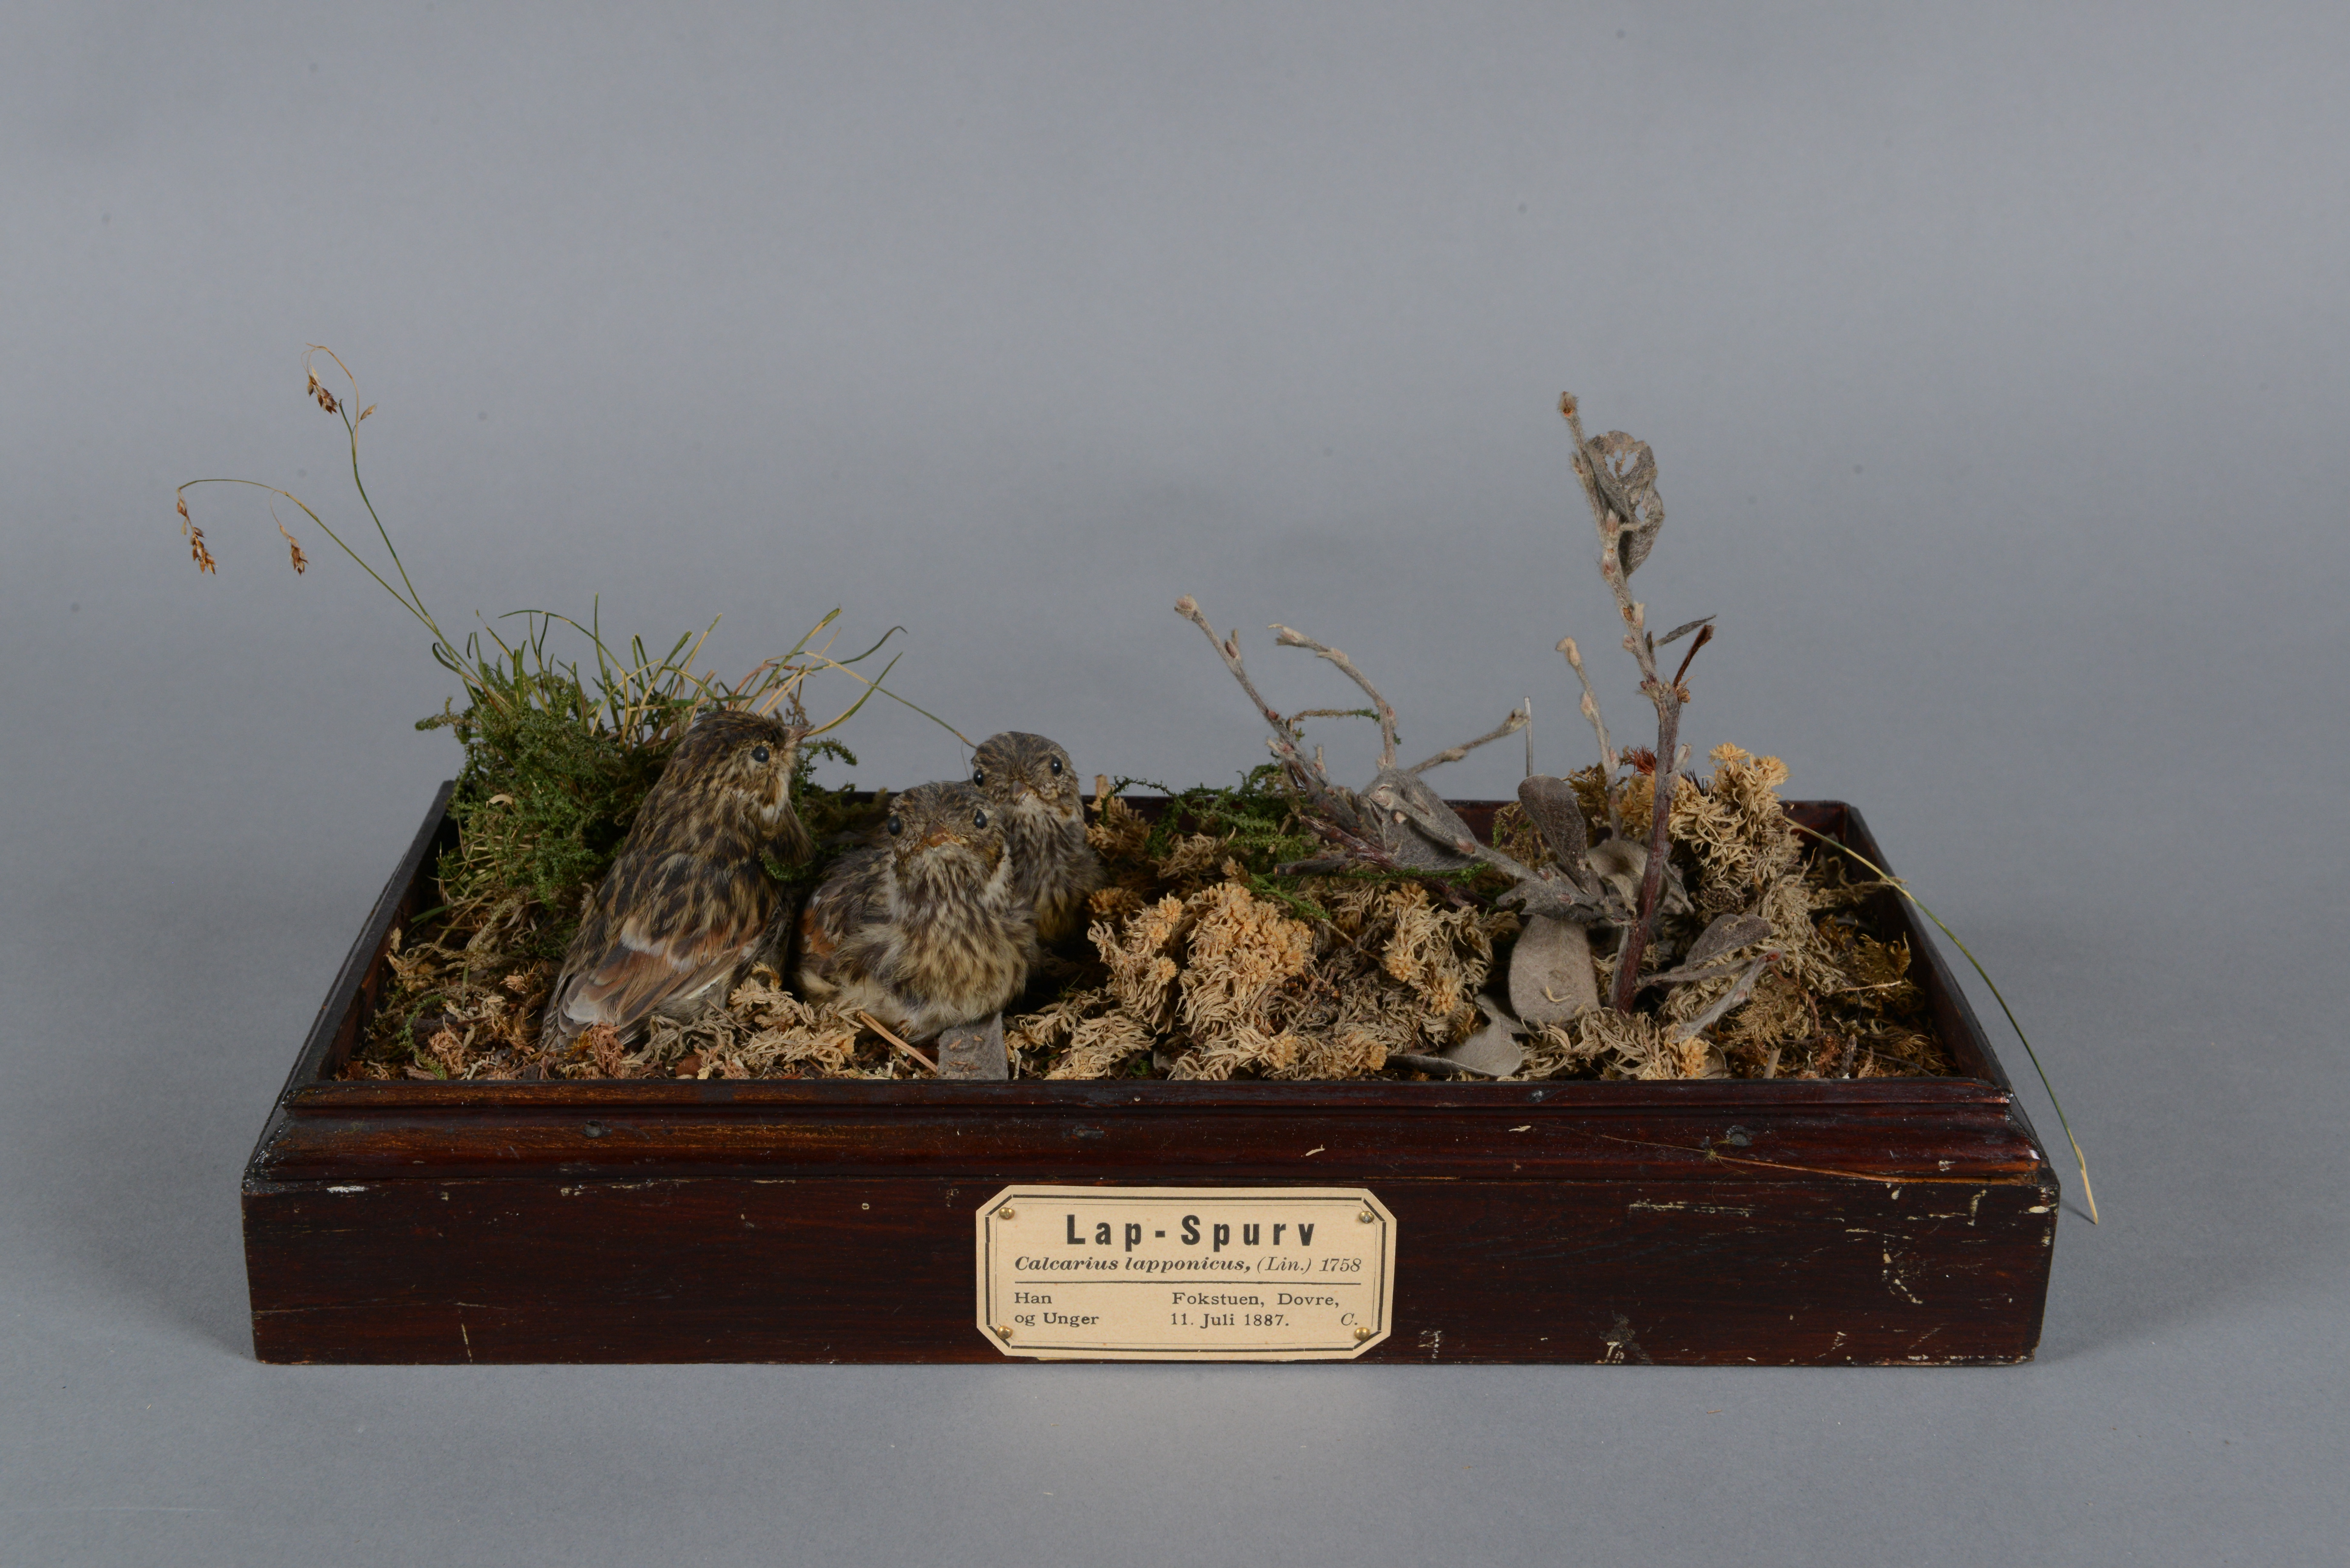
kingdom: Animalia
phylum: Chordata
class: Aves
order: Passeriformes
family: Calcariidae
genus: Calcarius
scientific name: Calcarius lapponicus
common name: Lapland longspur
